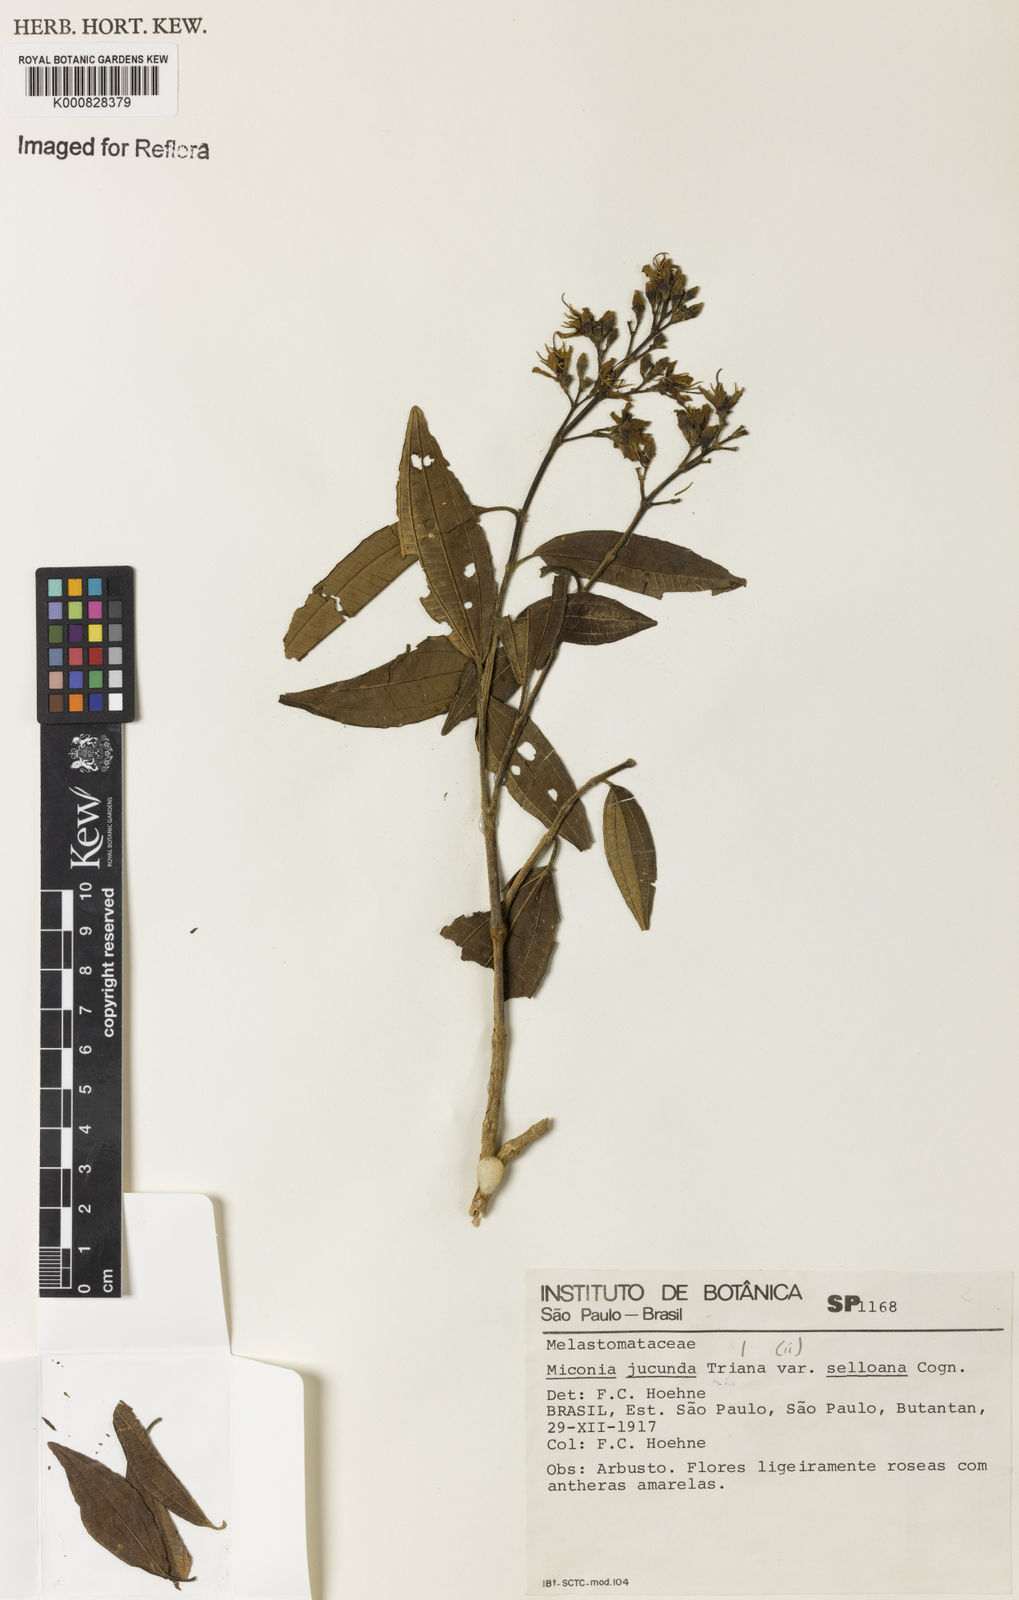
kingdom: Plantae
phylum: Tracheophyta
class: Magnoliopsida
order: Myrtales
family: Melastomataceae
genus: Miconia
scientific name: Miconia jucunda
